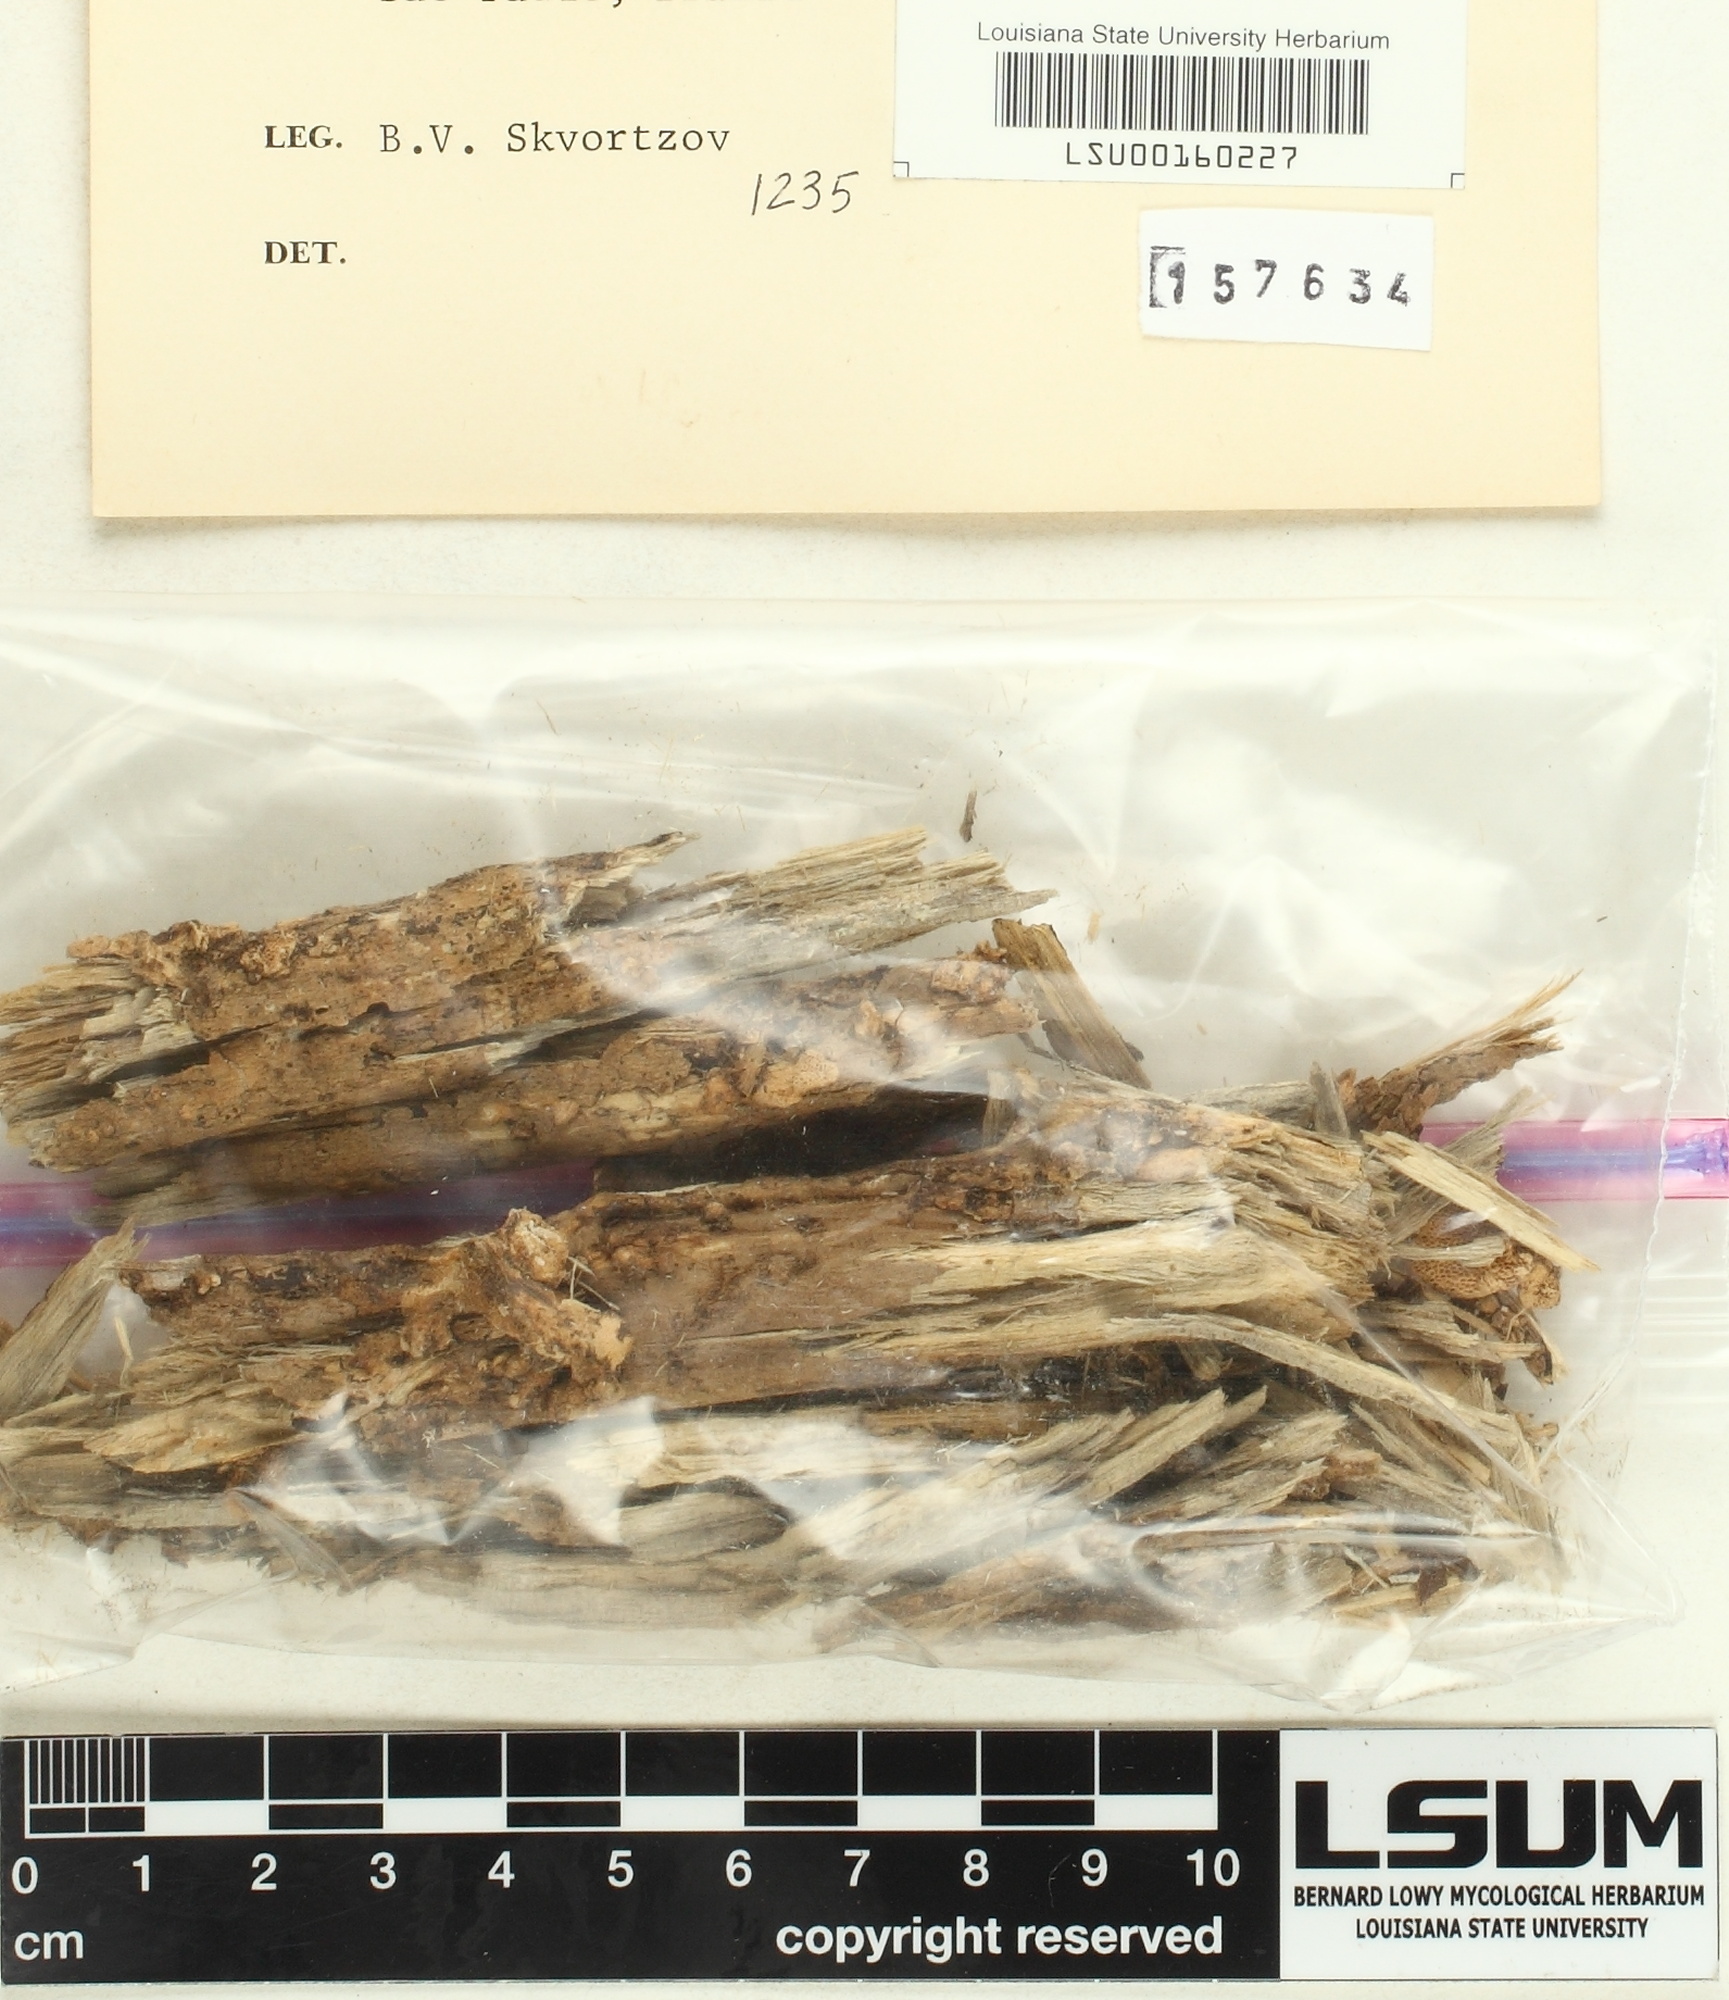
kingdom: Fungi
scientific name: Fungi
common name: Fungi
